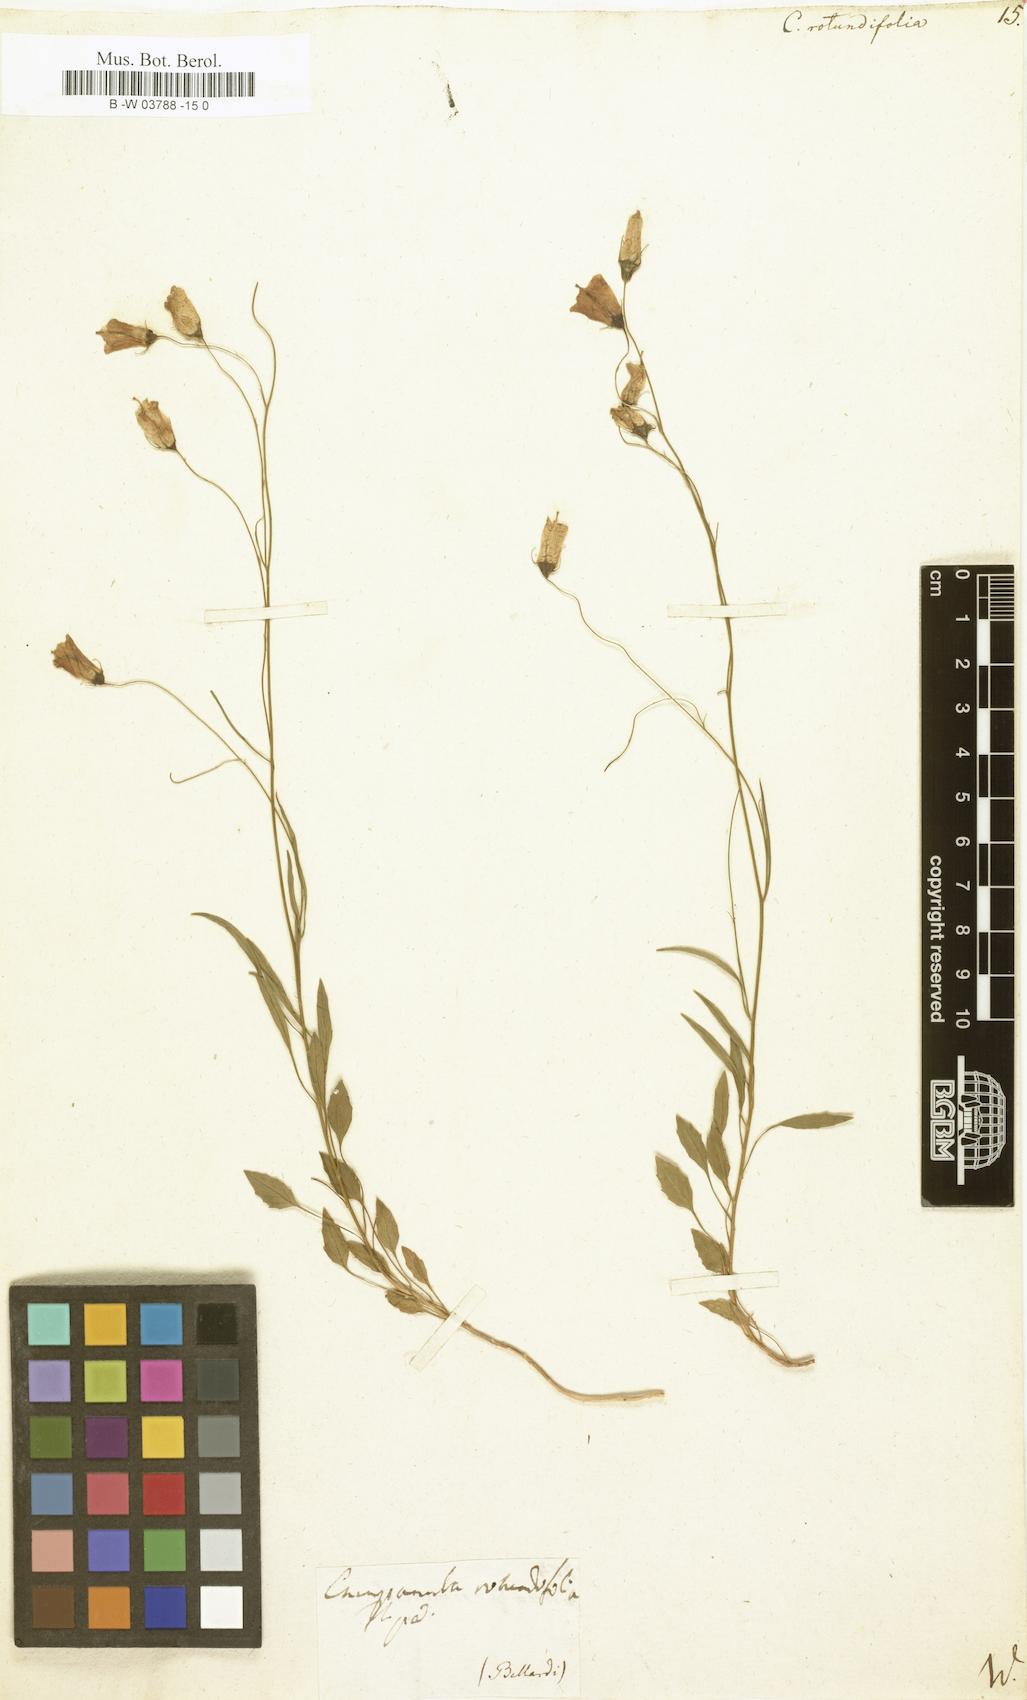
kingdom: Plantae
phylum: Tracheophyta
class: Magnoliopsida
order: Asterales
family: Campanulaceae
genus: Campanula
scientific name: Campanula rotundifolia
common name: Harebell
